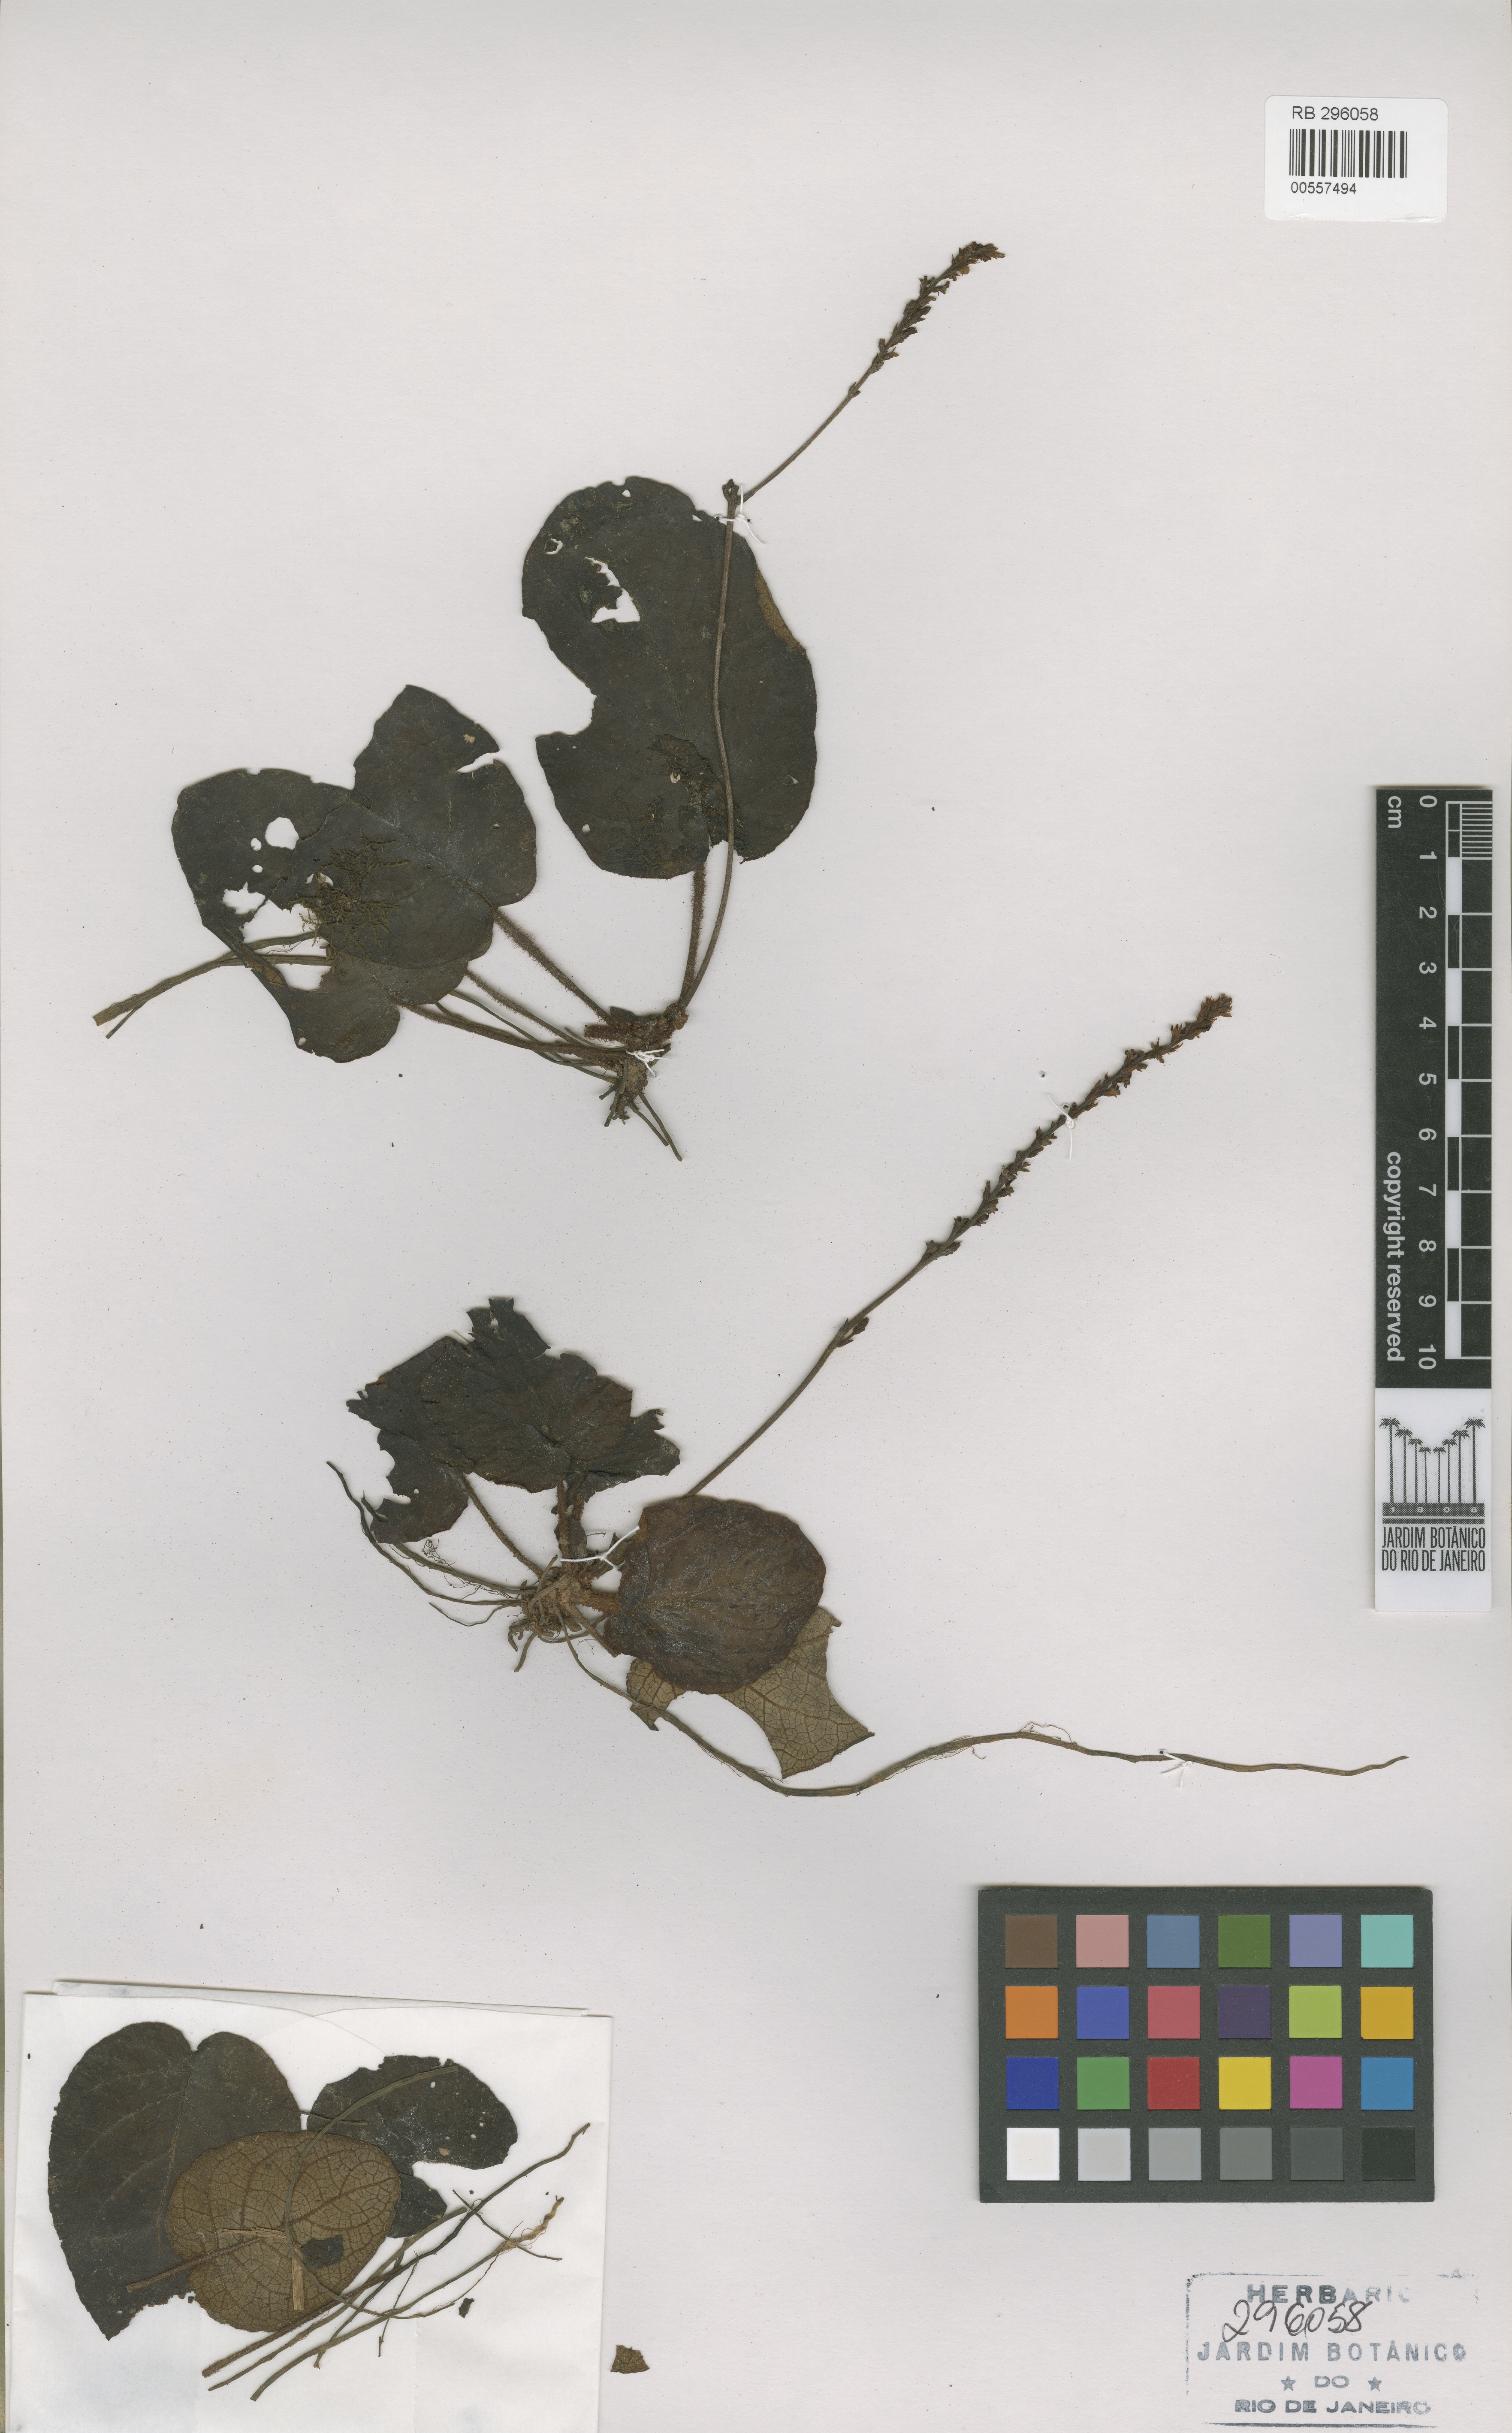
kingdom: Plantae
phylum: Tracheophyta
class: Magnoliopsida
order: Lamiales
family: Acanthaceae
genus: Aymoreana
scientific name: Aymoreana nitida
